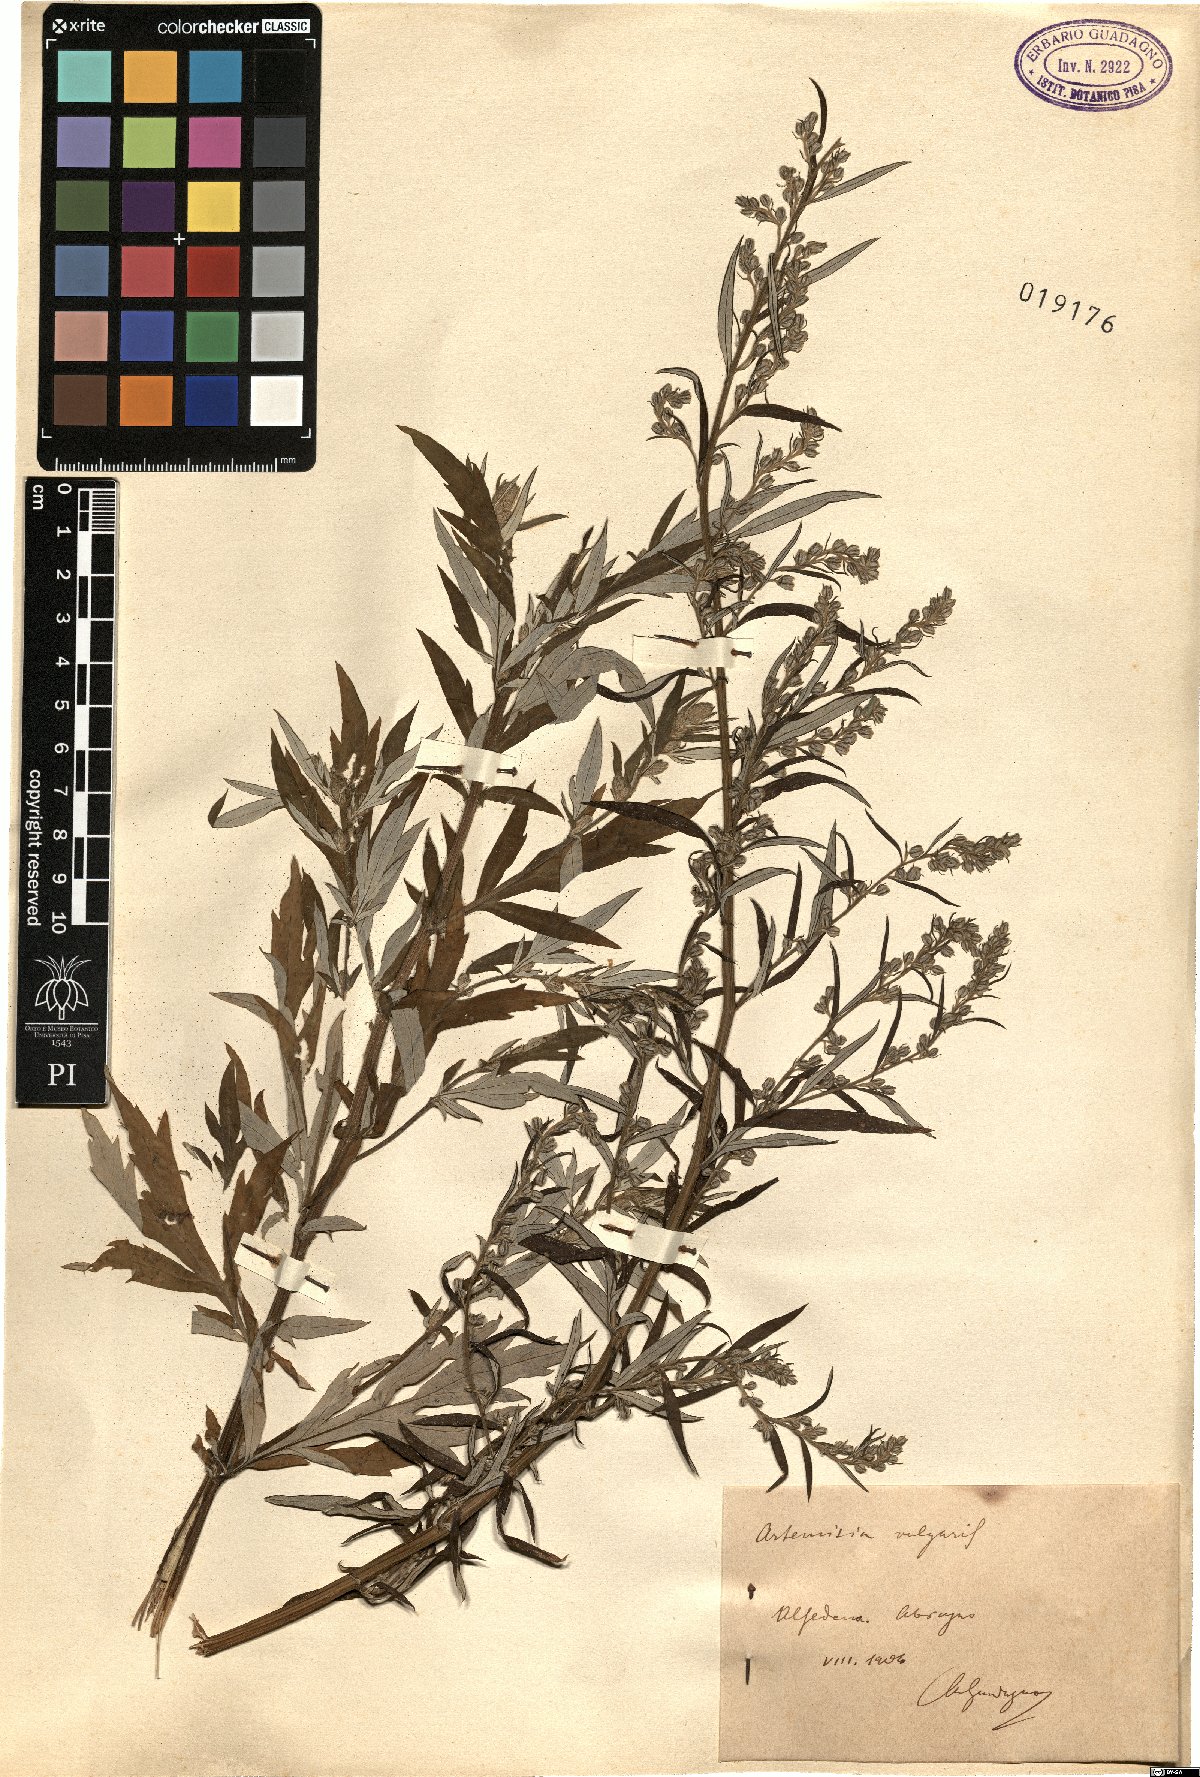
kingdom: Plantae
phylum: Tracheophyta
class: Magnoliopsida
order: Asterales
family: Asteraceae
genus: Artemisia
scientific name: Artemisia vulgaris
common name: Mugwort
